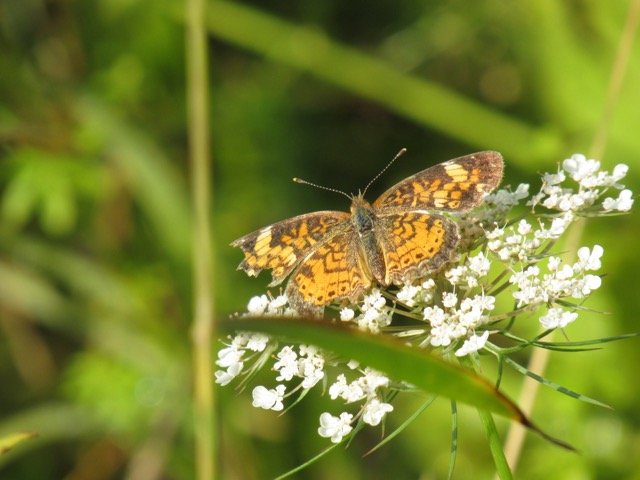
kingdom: Animalia
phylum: Arthropoda
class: Insecta
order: Lepidoptera
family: Nymphalidae
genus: Phyciodes
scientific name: Phyciodes tharos
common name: Pearl Crescent
